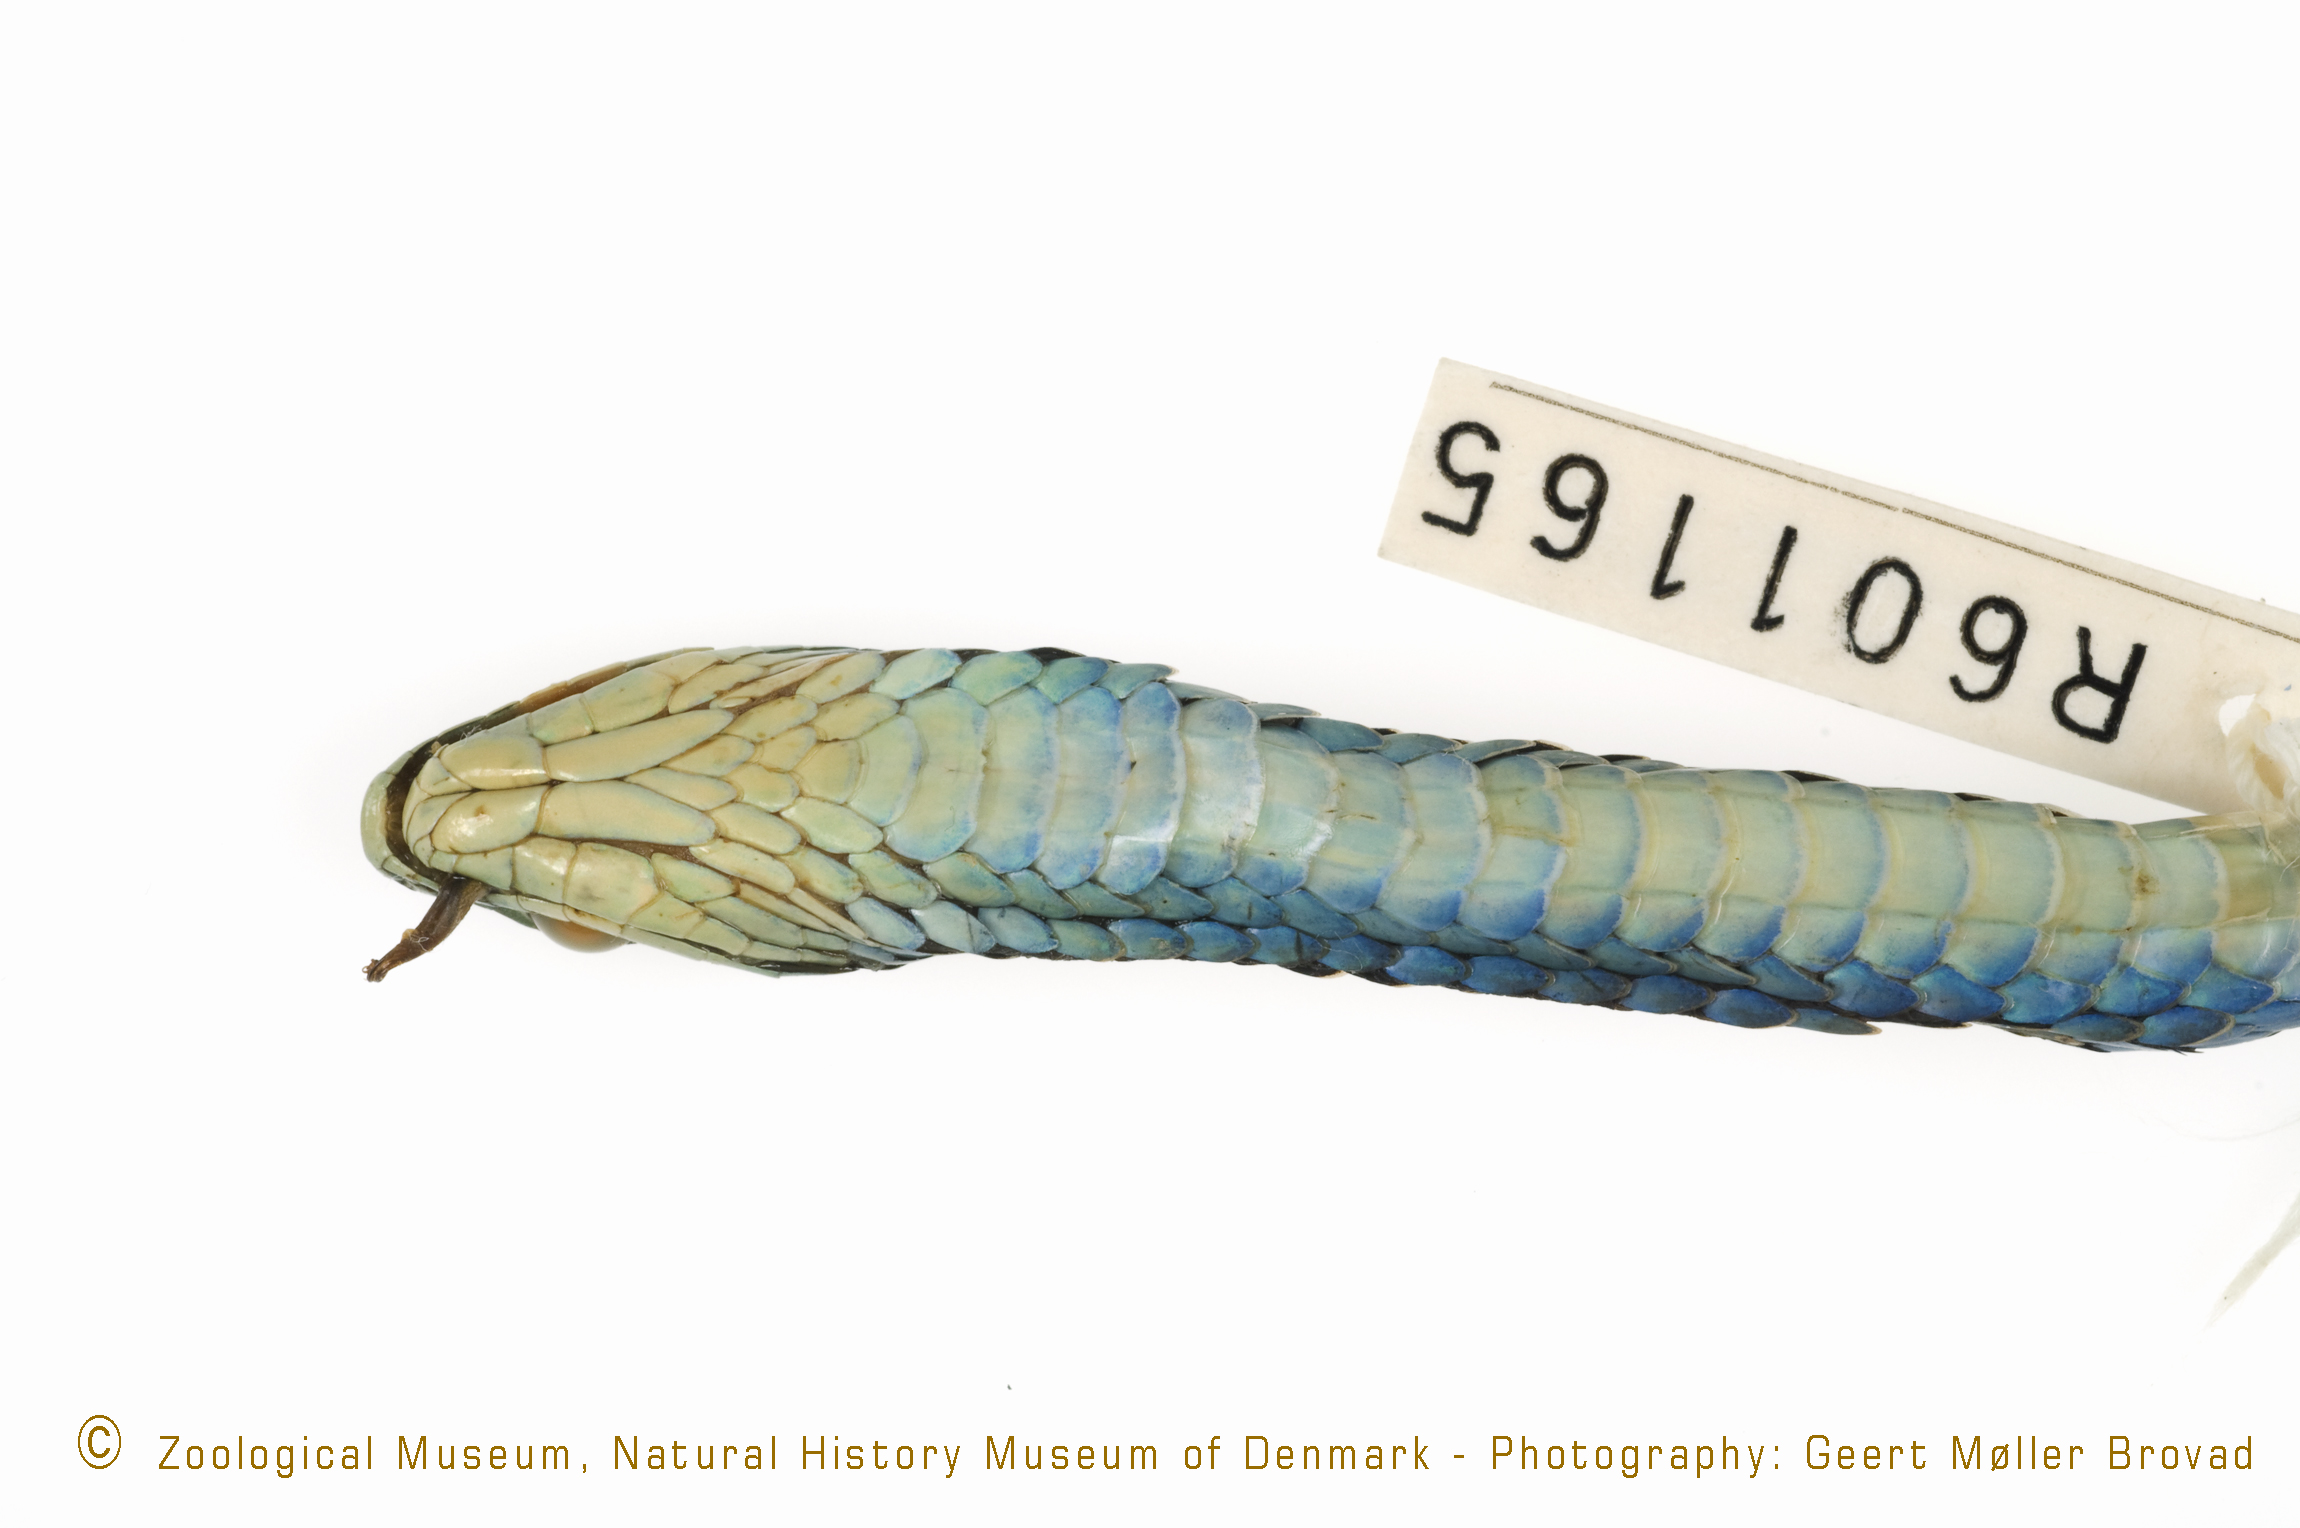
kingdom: Animalia
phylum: Chordata
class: Squamata
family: Colubridae
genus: Philothamnus
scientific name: Philothamnus nitidus
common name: Green bush snake
